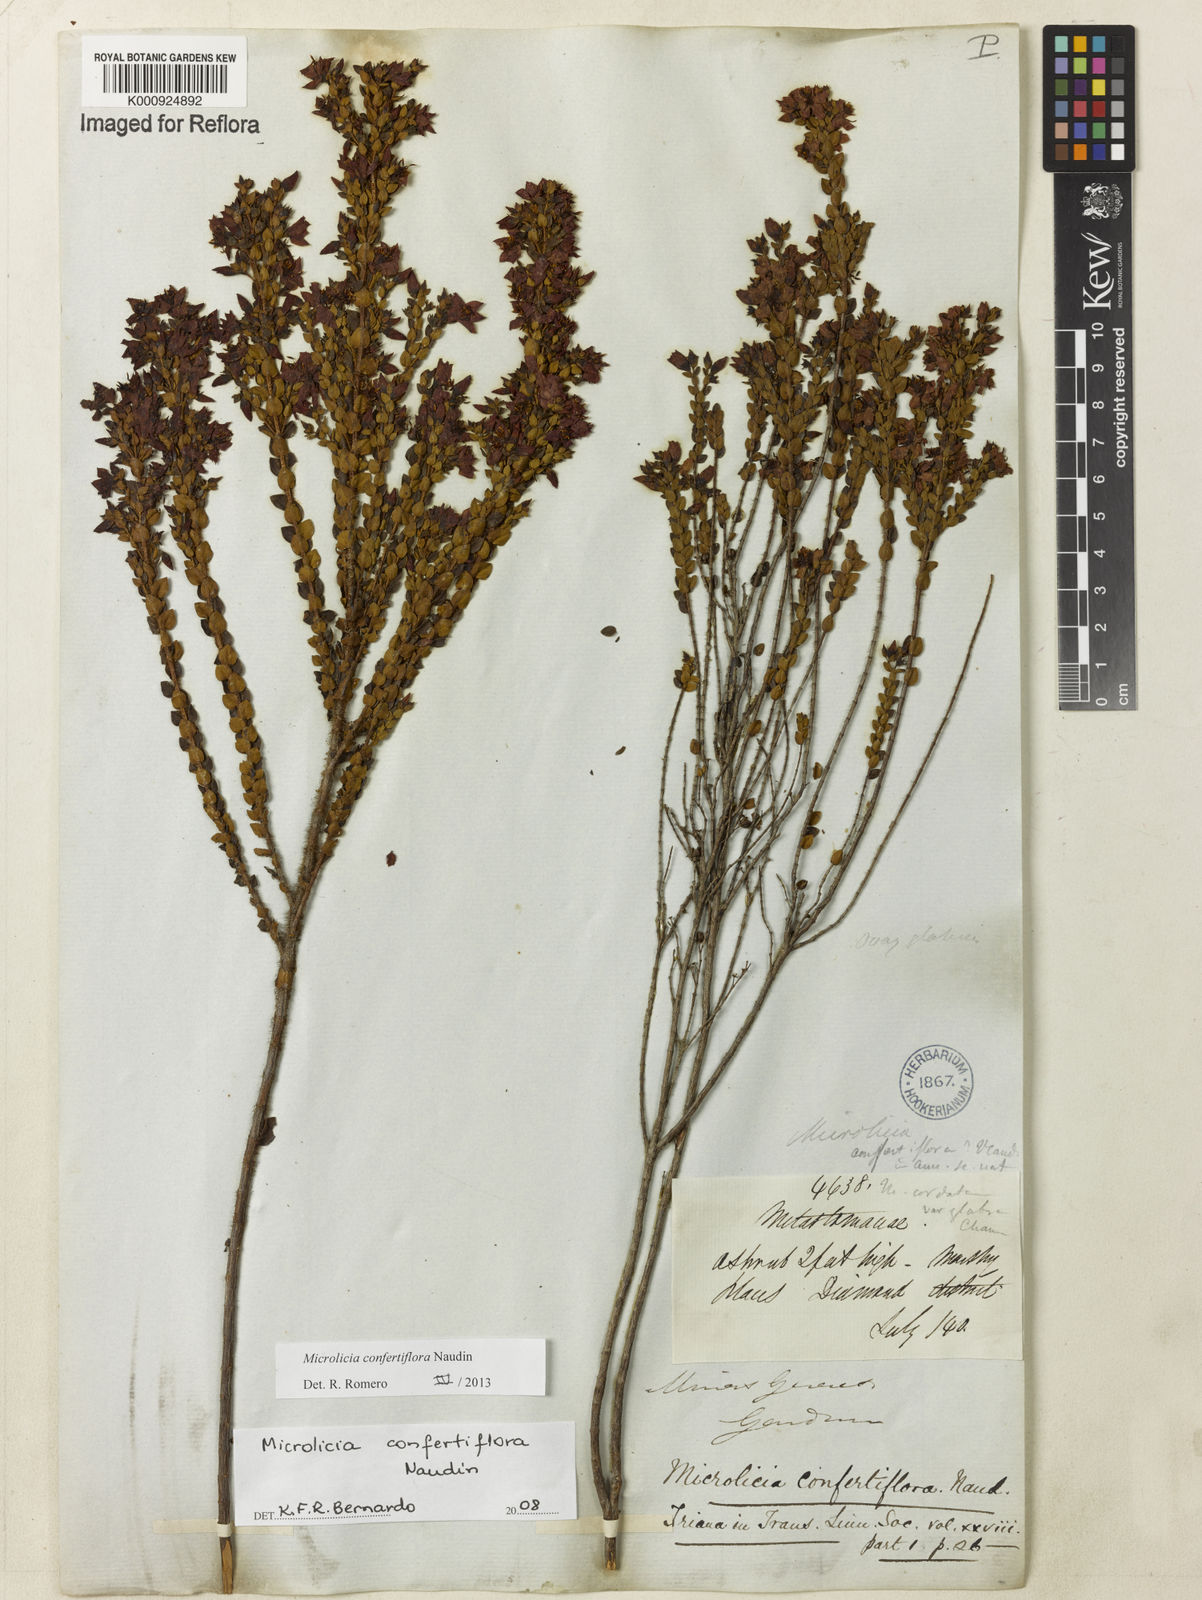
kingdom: Plantae
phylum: Tracheophyta
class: Magnoliopsida
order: Myrtales
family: Melastomataceae
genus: Microlicia
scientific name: Microlicia confertiflora
